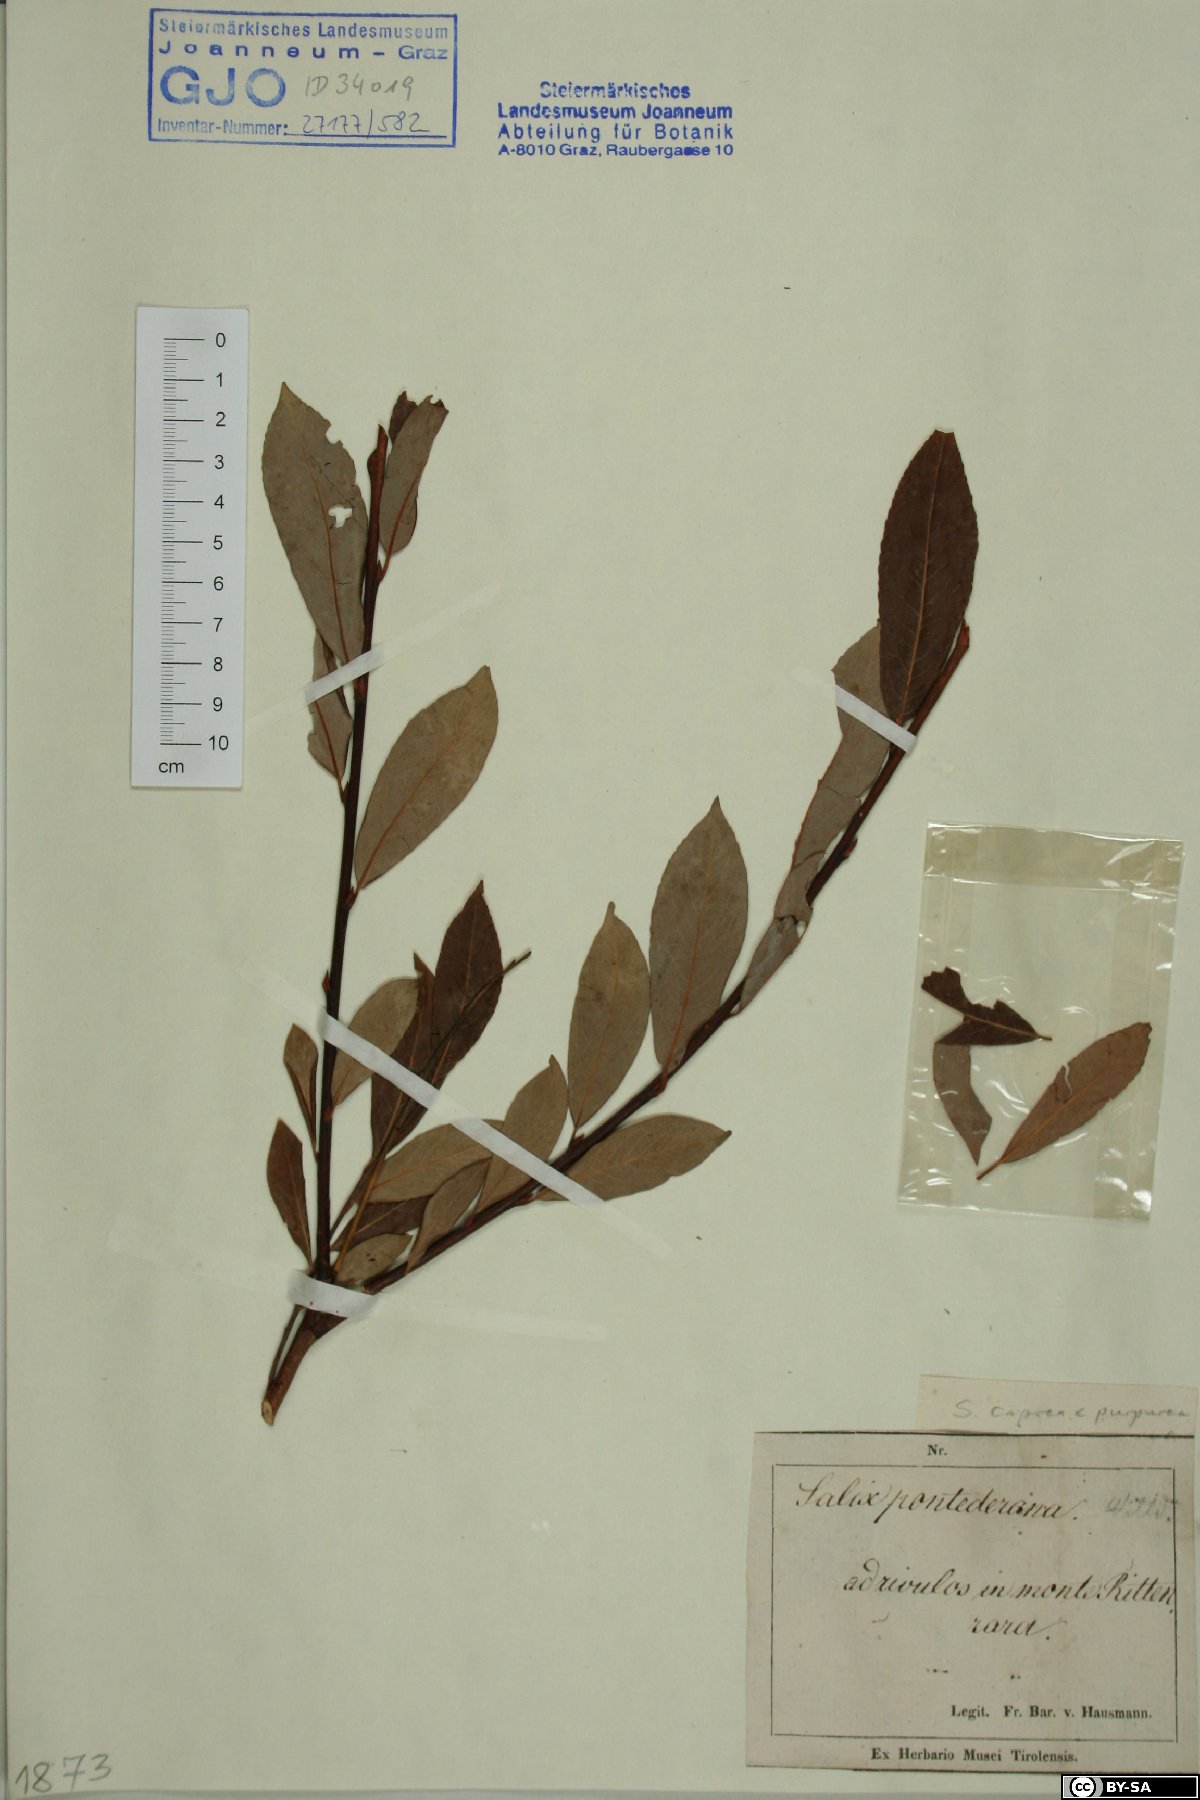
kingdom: Plantae
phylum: Tracheophyta
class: Magnoliopsida
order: Malpighiales
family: Salicaceae
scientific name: Salicaceae
